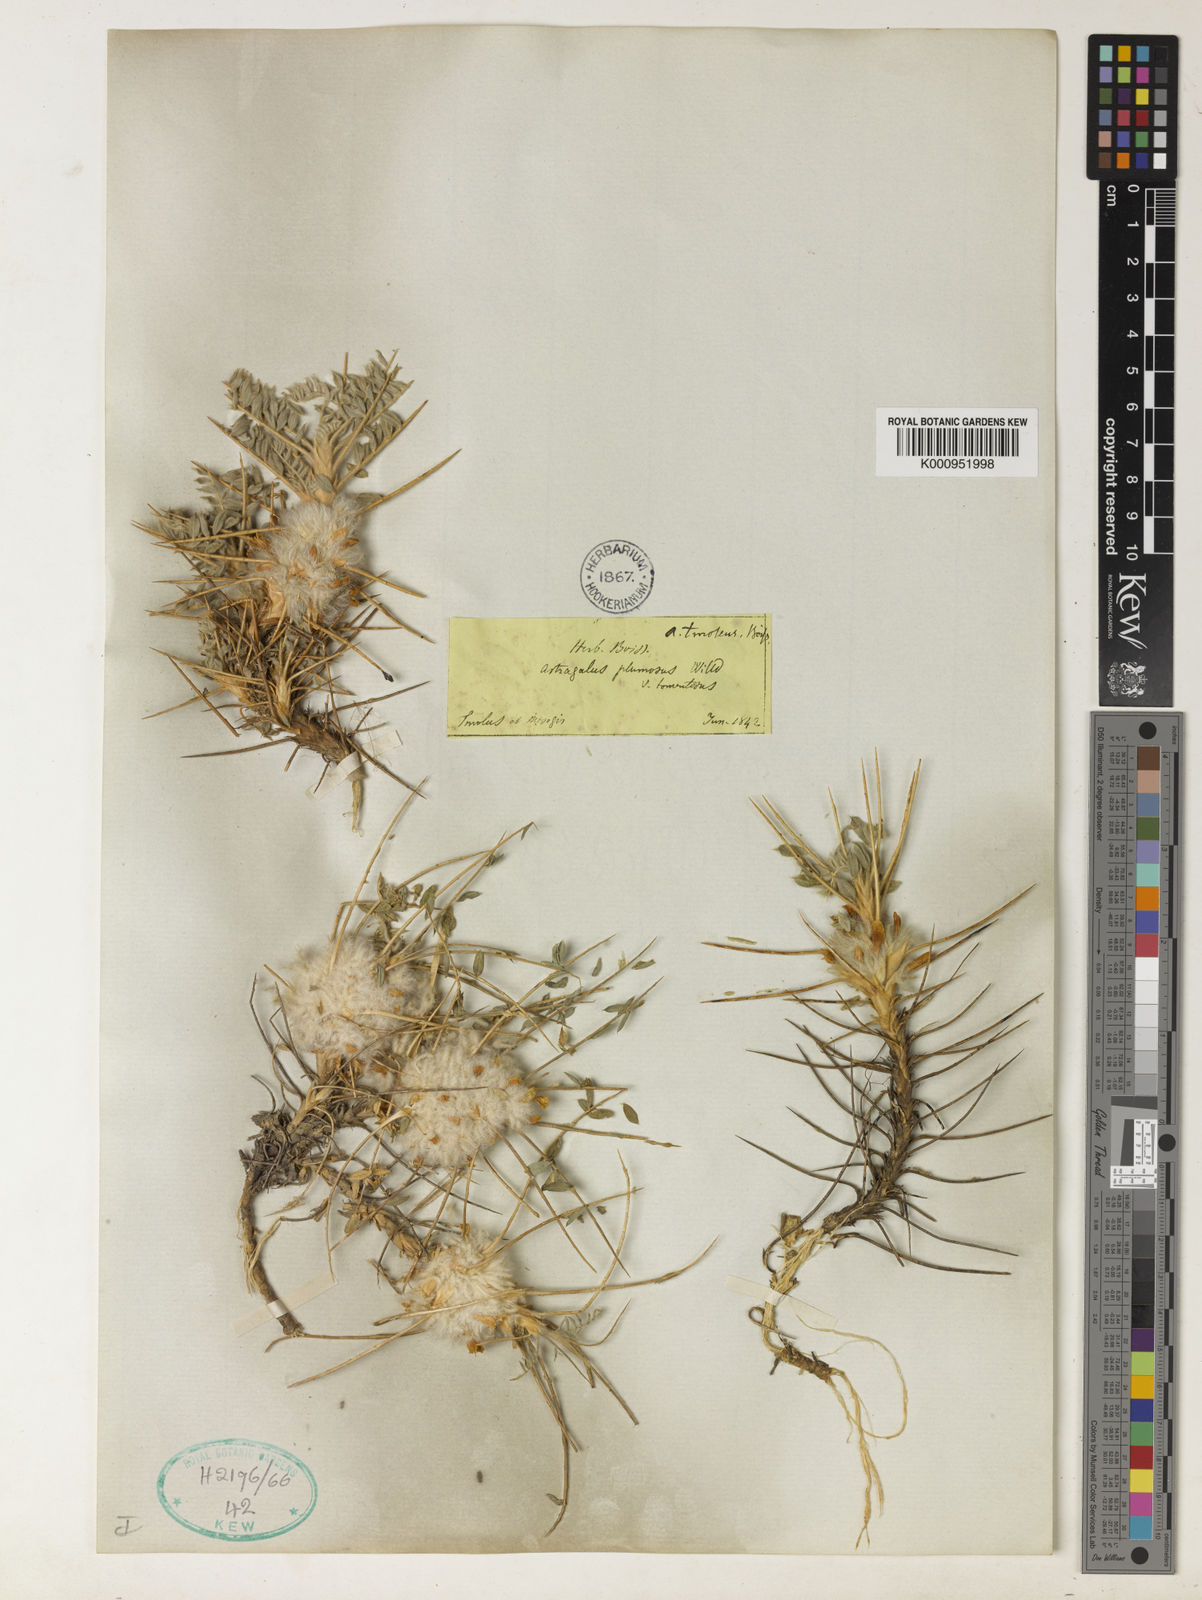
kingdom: Plantae
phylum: Tracheophyta
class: Magnoliopsida
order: Fabales
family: Fabaceae
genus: Astragalus
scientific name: Astragalus tmoleus
